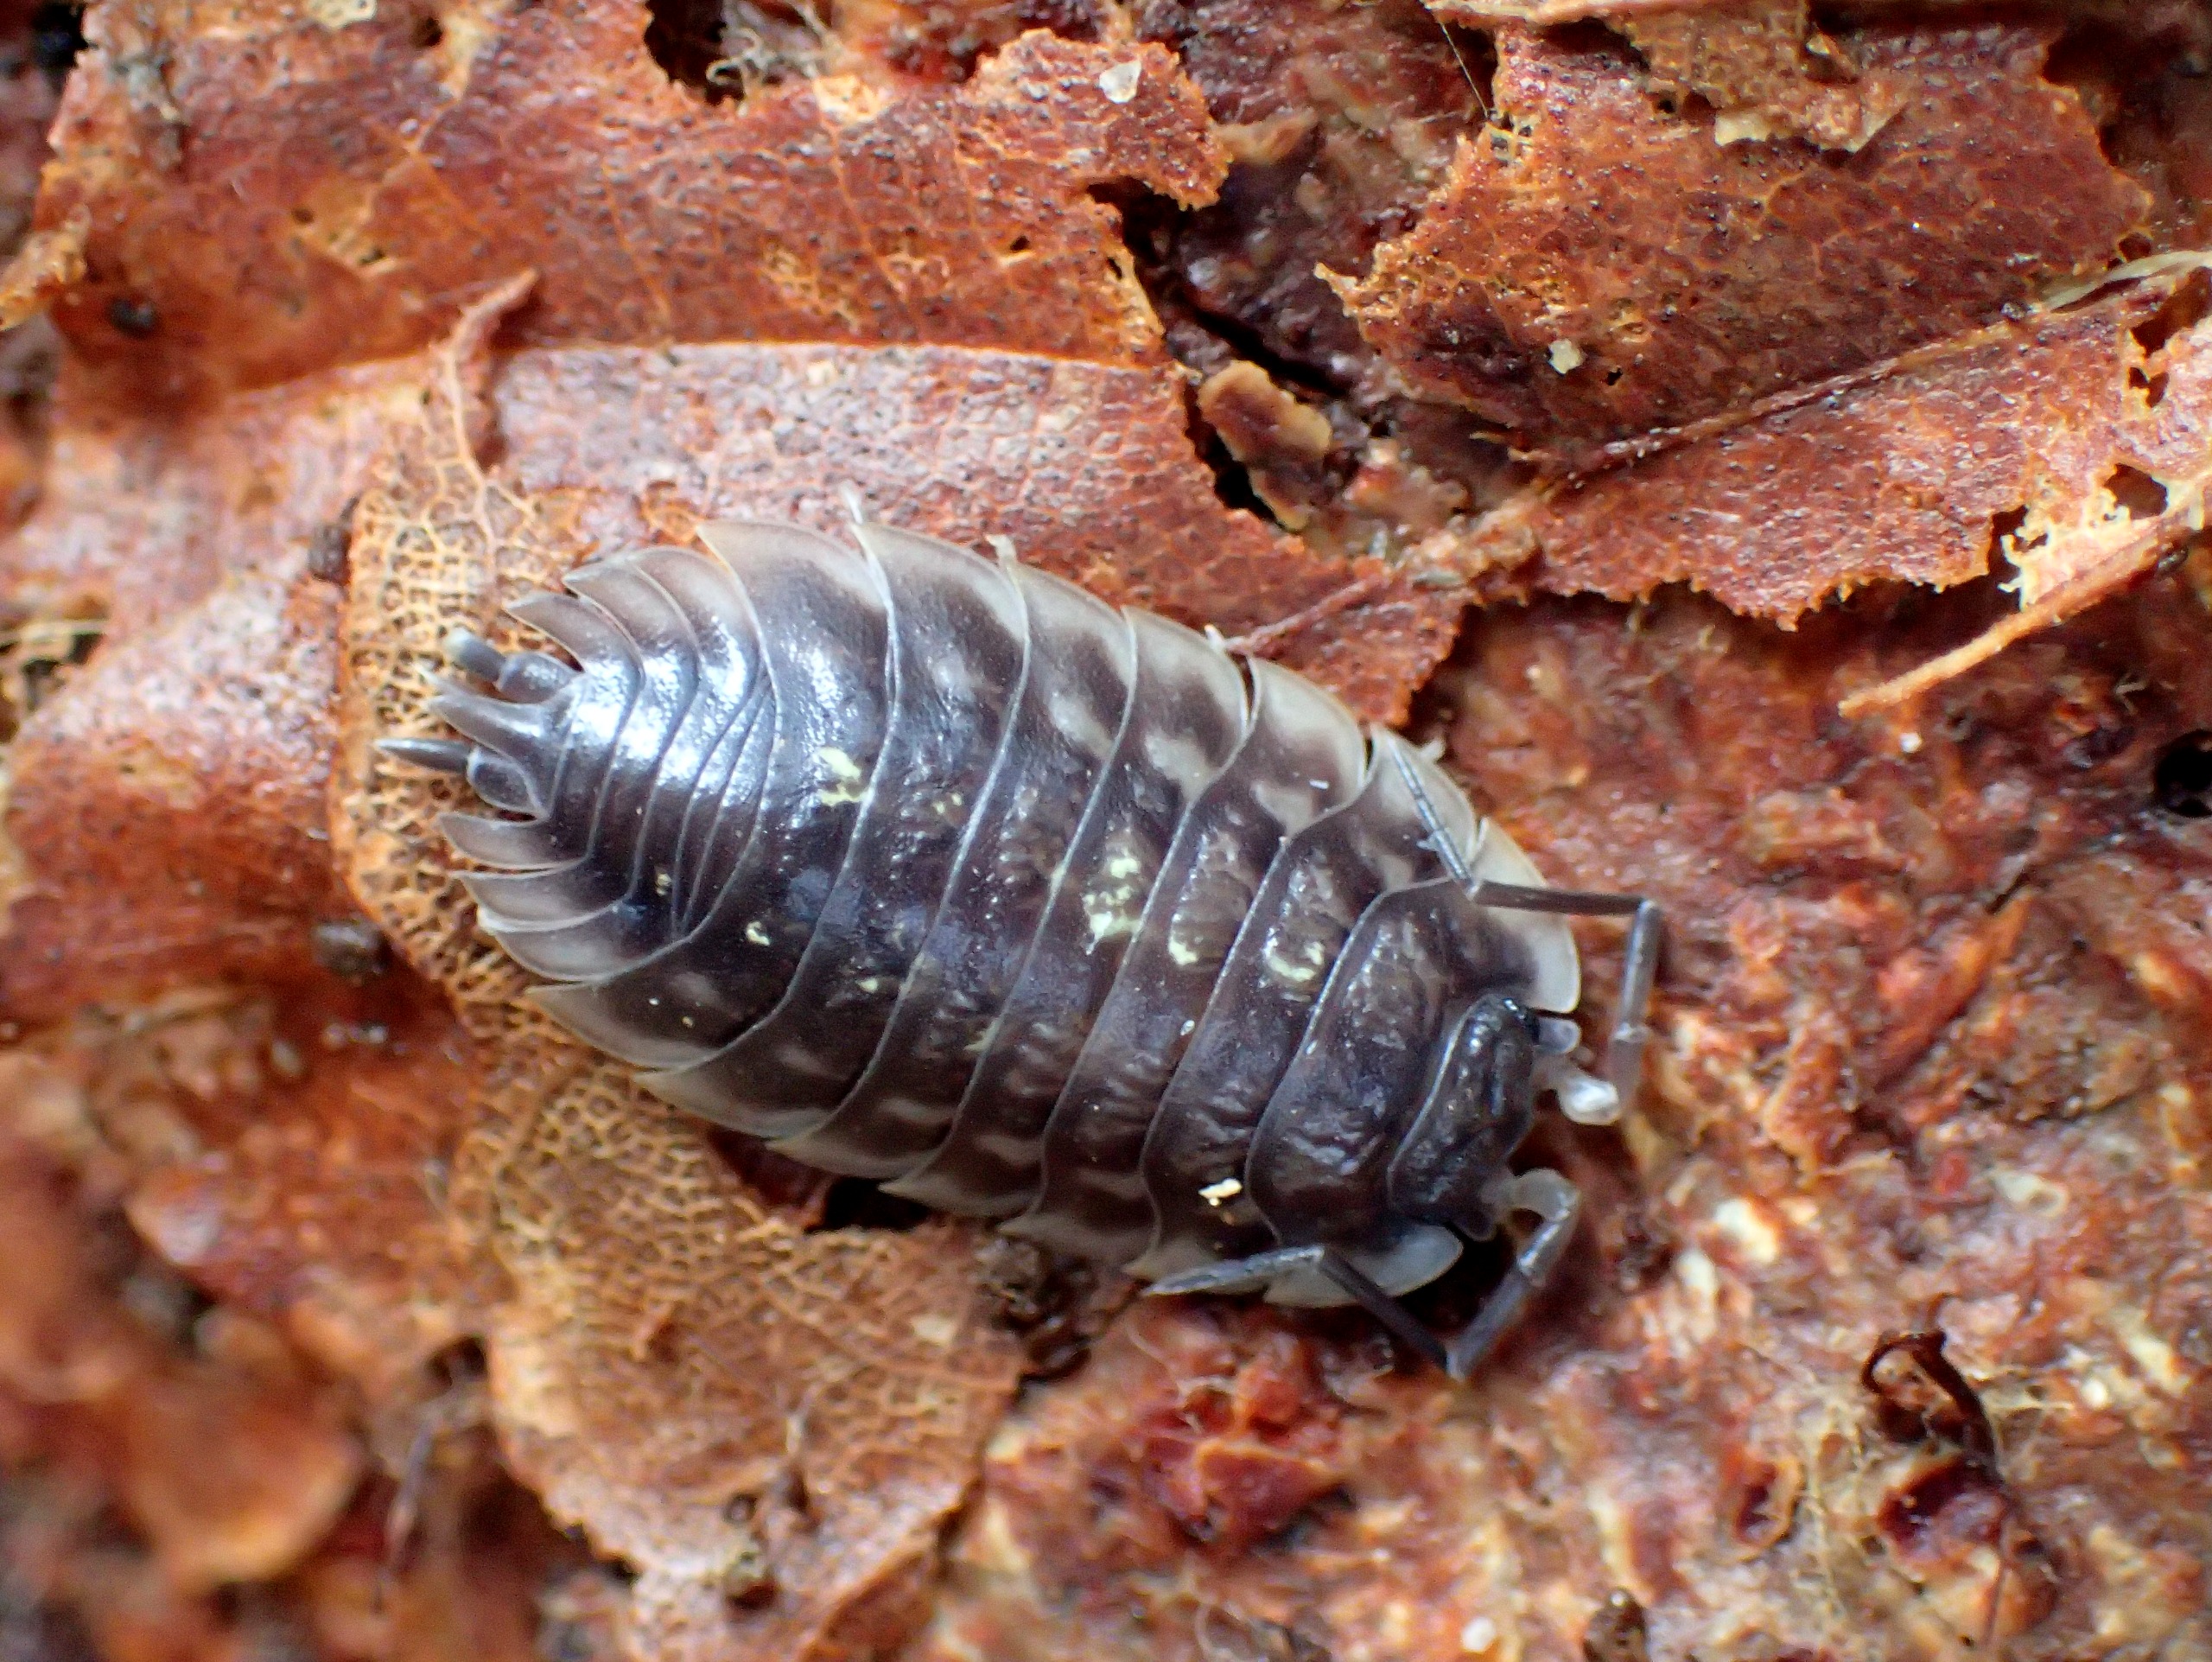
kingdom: Animalia
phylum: Arthropoda
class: Malacostraca
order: Isopoda
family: Oniscidae
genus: Oniscus
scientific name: Oniscus asellus
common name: Glat bænkebider
